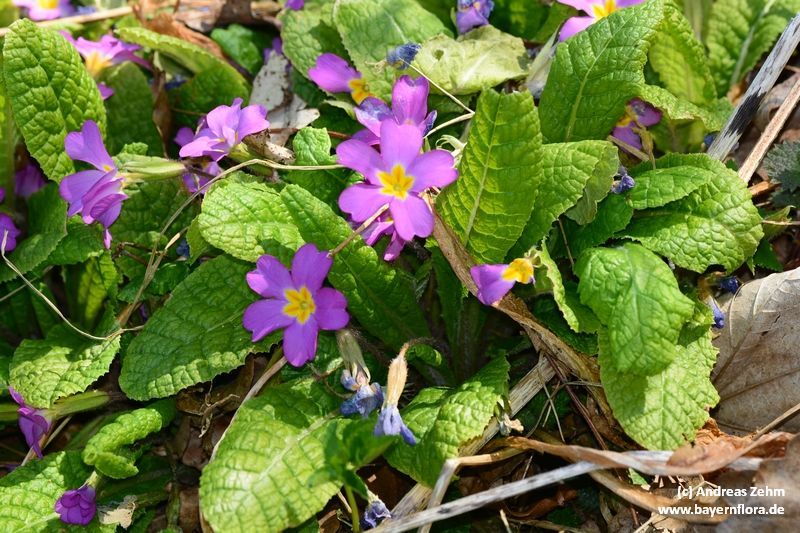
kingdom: Plantae
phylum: Tracheophyta
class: Magnoliopsida
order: Ericales
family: Primulaceae
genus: Primula
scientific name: Primula vulgaris
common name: Primrose
